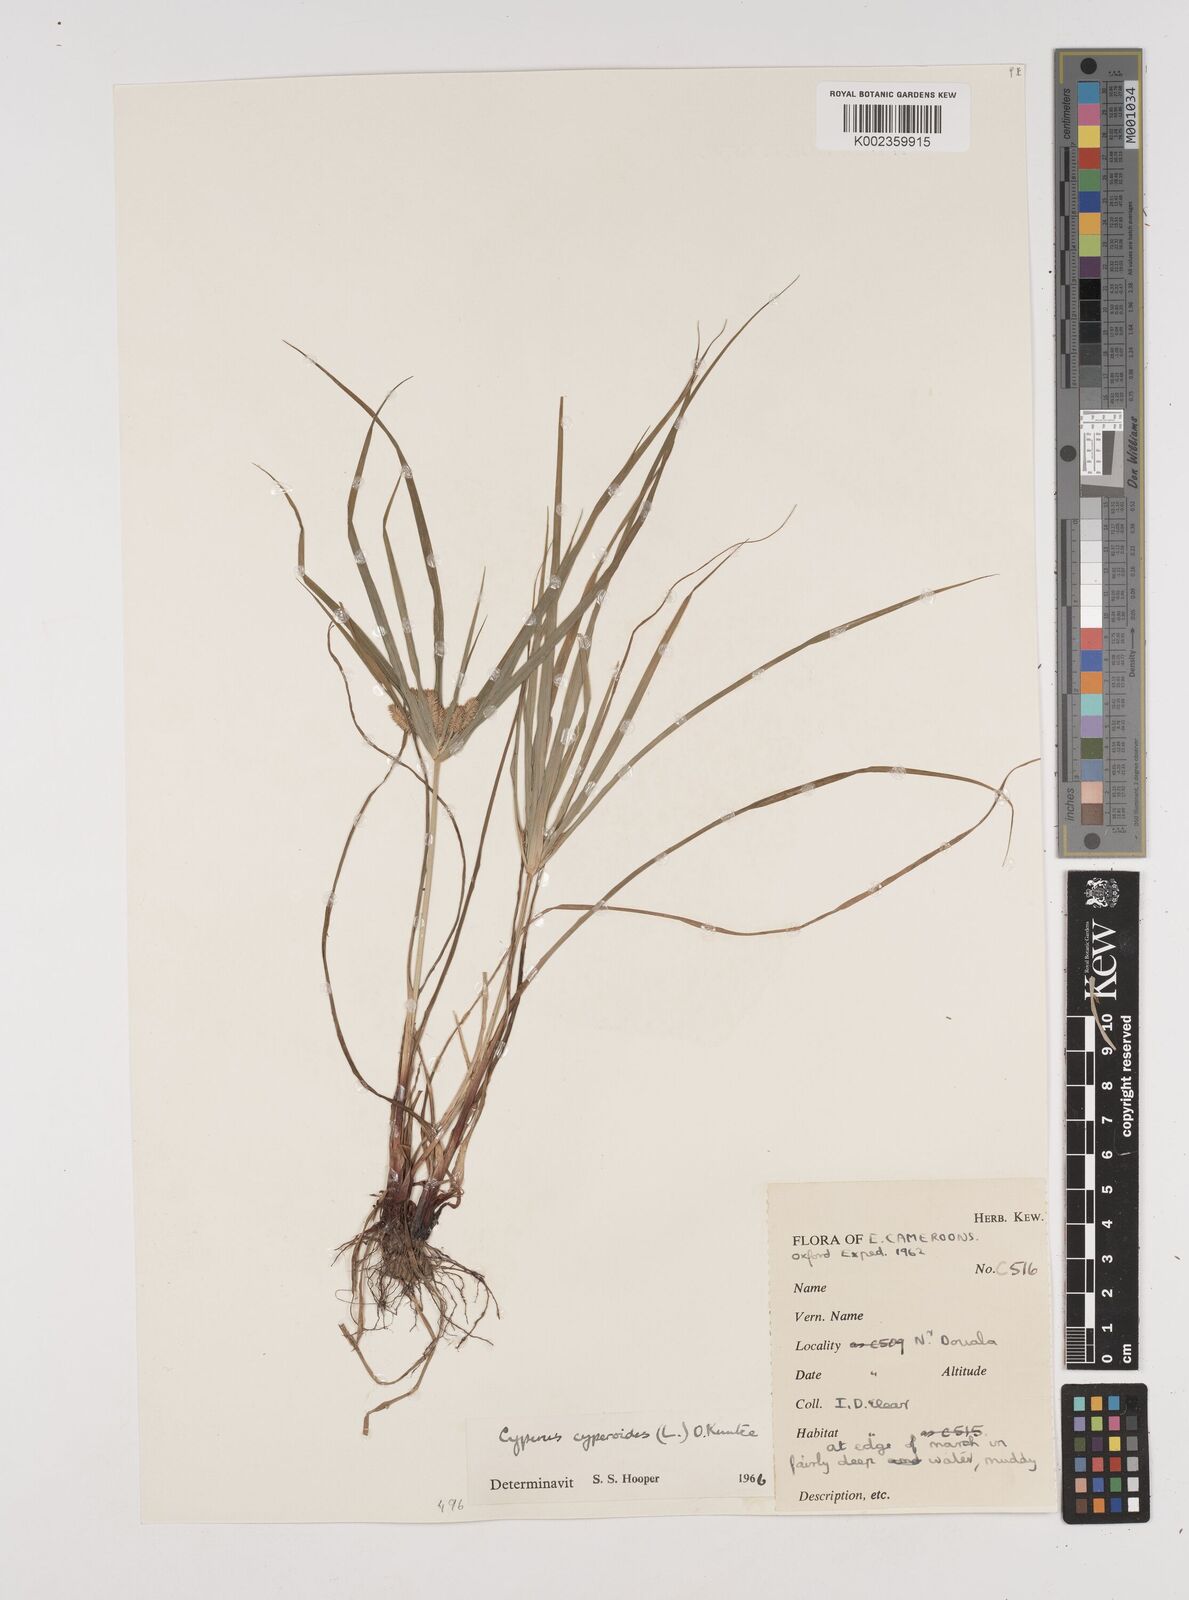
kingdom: Plantae
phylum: Tracheophyta
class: Liliopsida
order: Poales
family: Cyperaceae
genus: Cyperus
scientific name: Cyperus cyperoides
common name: Pacific island flat sedge
